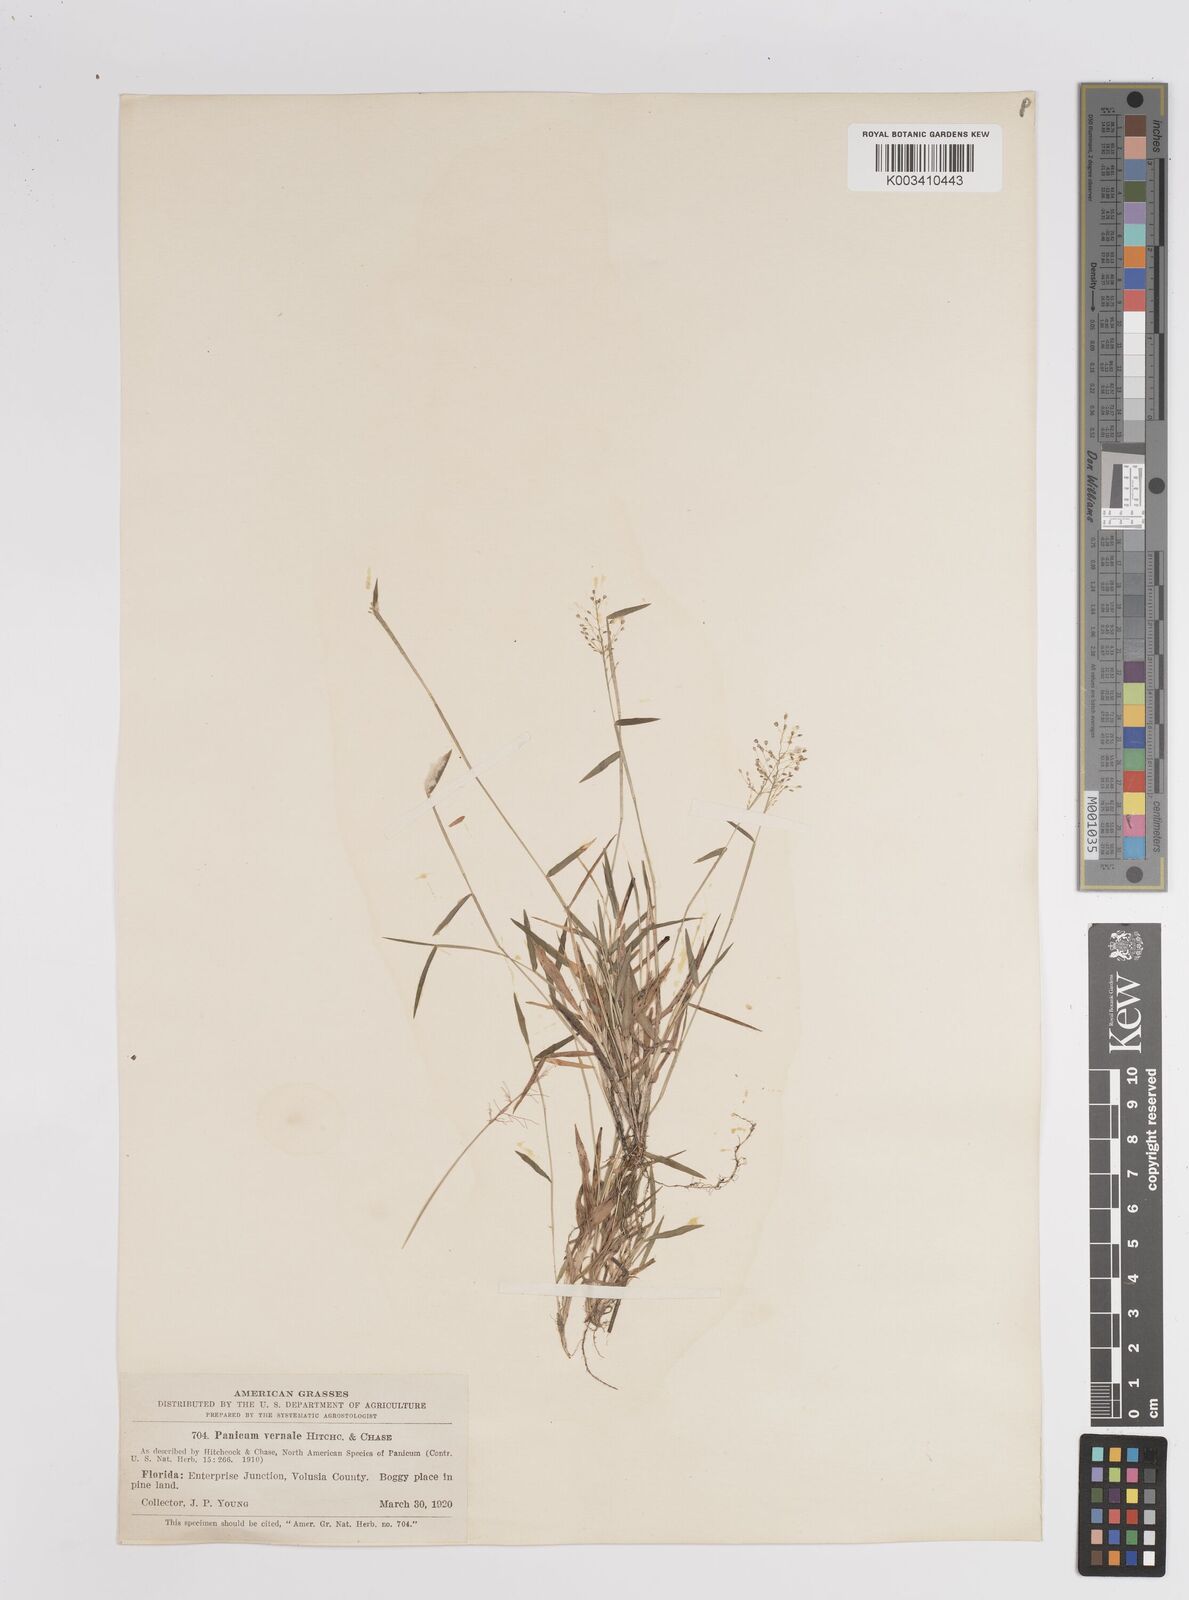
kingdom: Plantae
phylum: Tracheophyta
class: Liliopsida
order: Poales
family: Poaceae
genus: Dichanthelium
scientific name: Dichanthelium ensifolium
